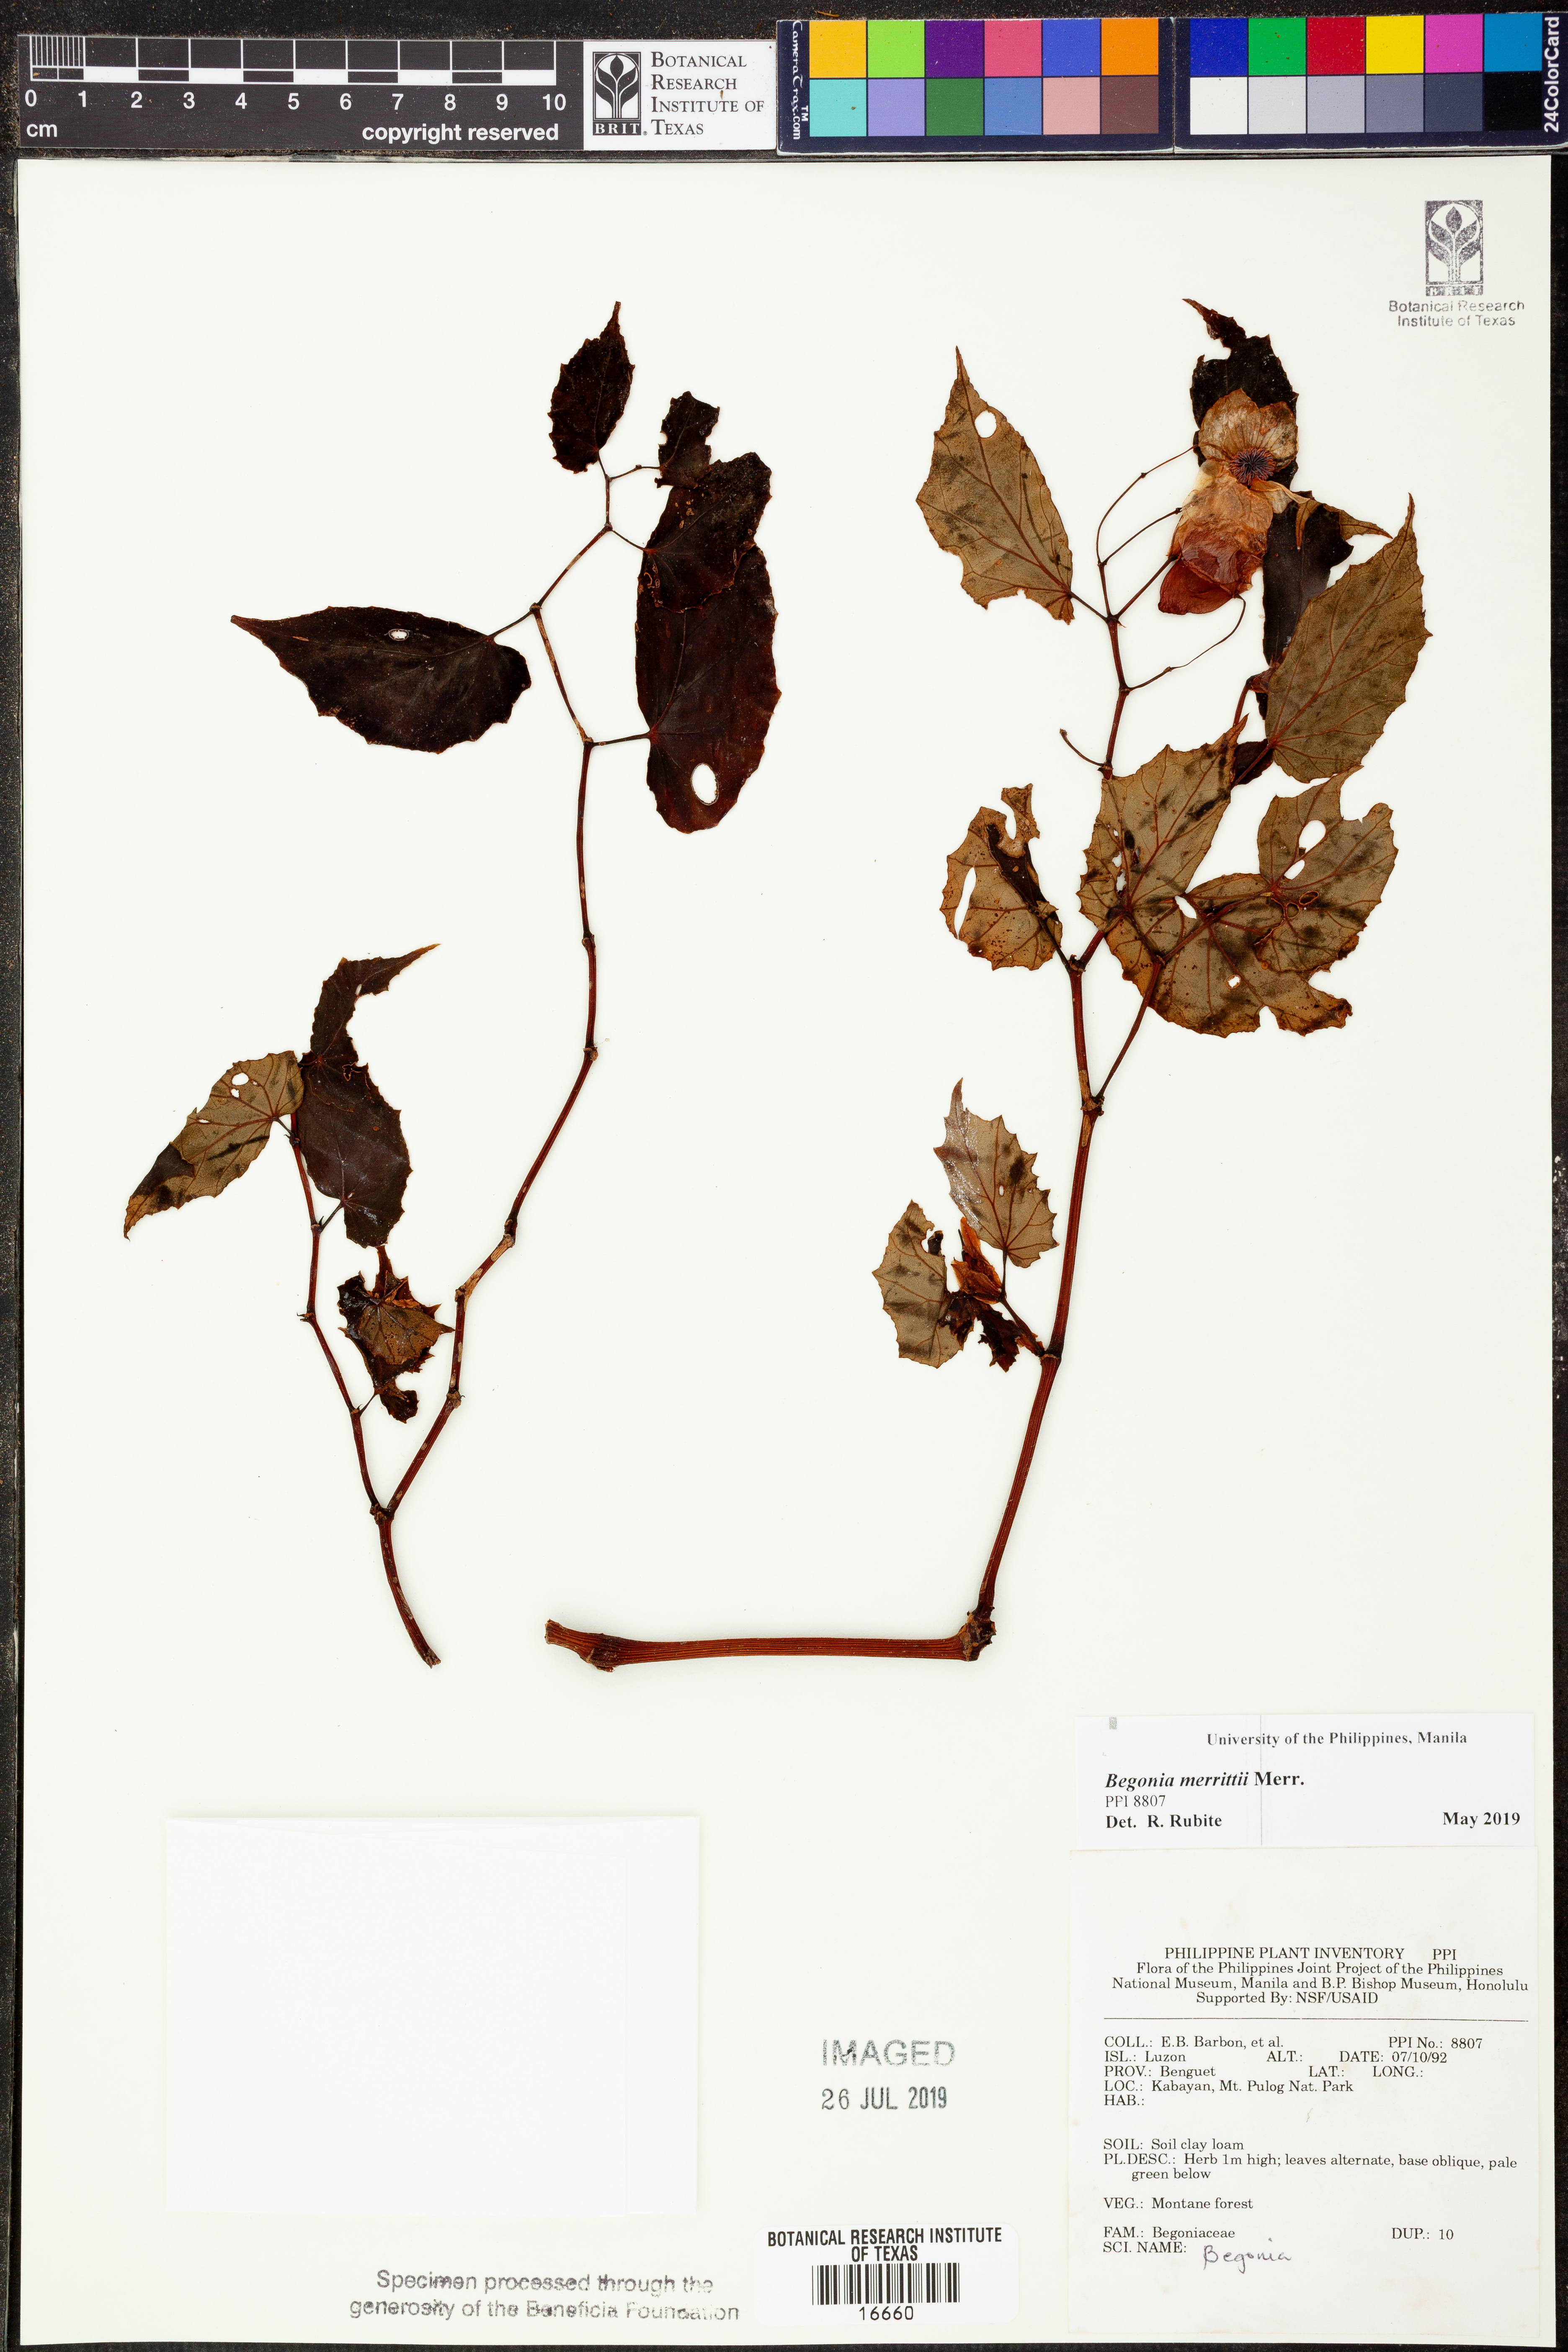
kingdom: Plantae
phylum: Tracheophyta
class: Magnoliopsida
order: Cucurbitales
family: Begoniaceae
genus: Begonia
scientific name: Begonia merrittii
